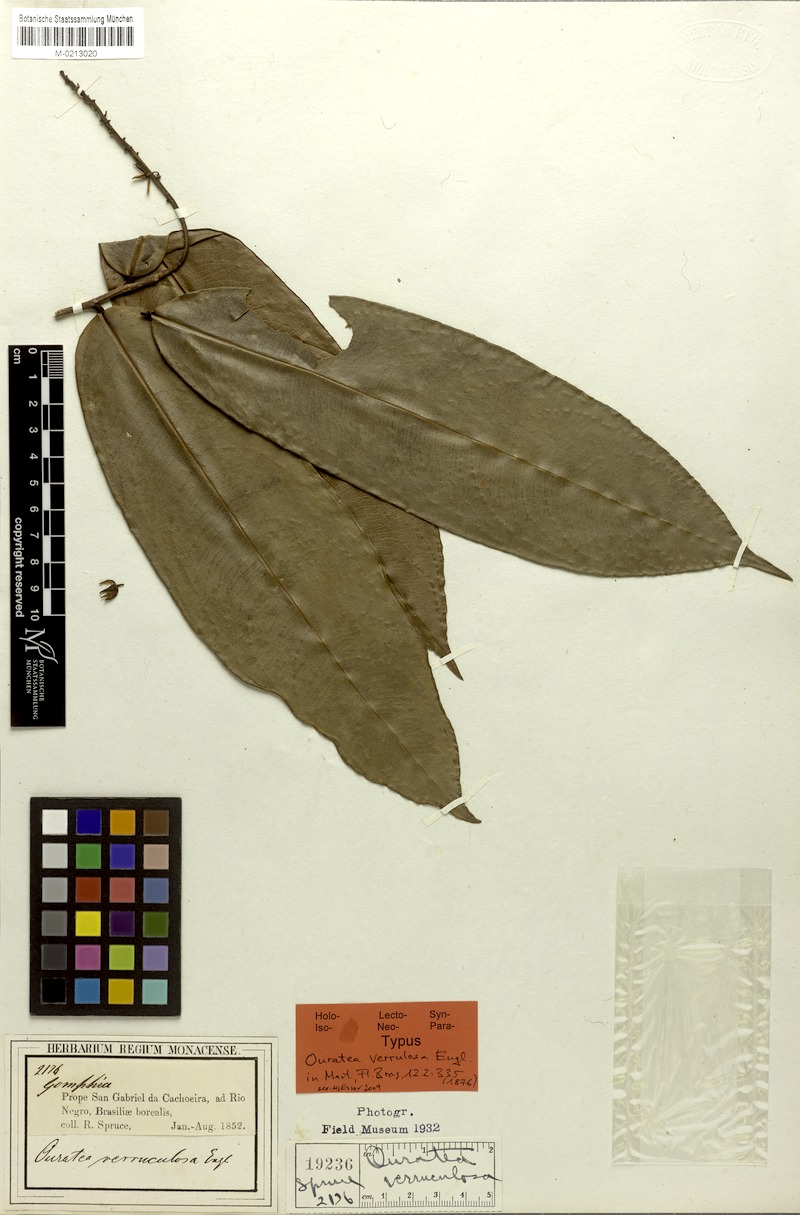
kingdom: Plantae
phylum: Tracheophyta
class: Magnoliopsida
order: Malpighiales
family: Ochnaceae
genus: Ouratea
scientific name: Ouratea verruculosa
